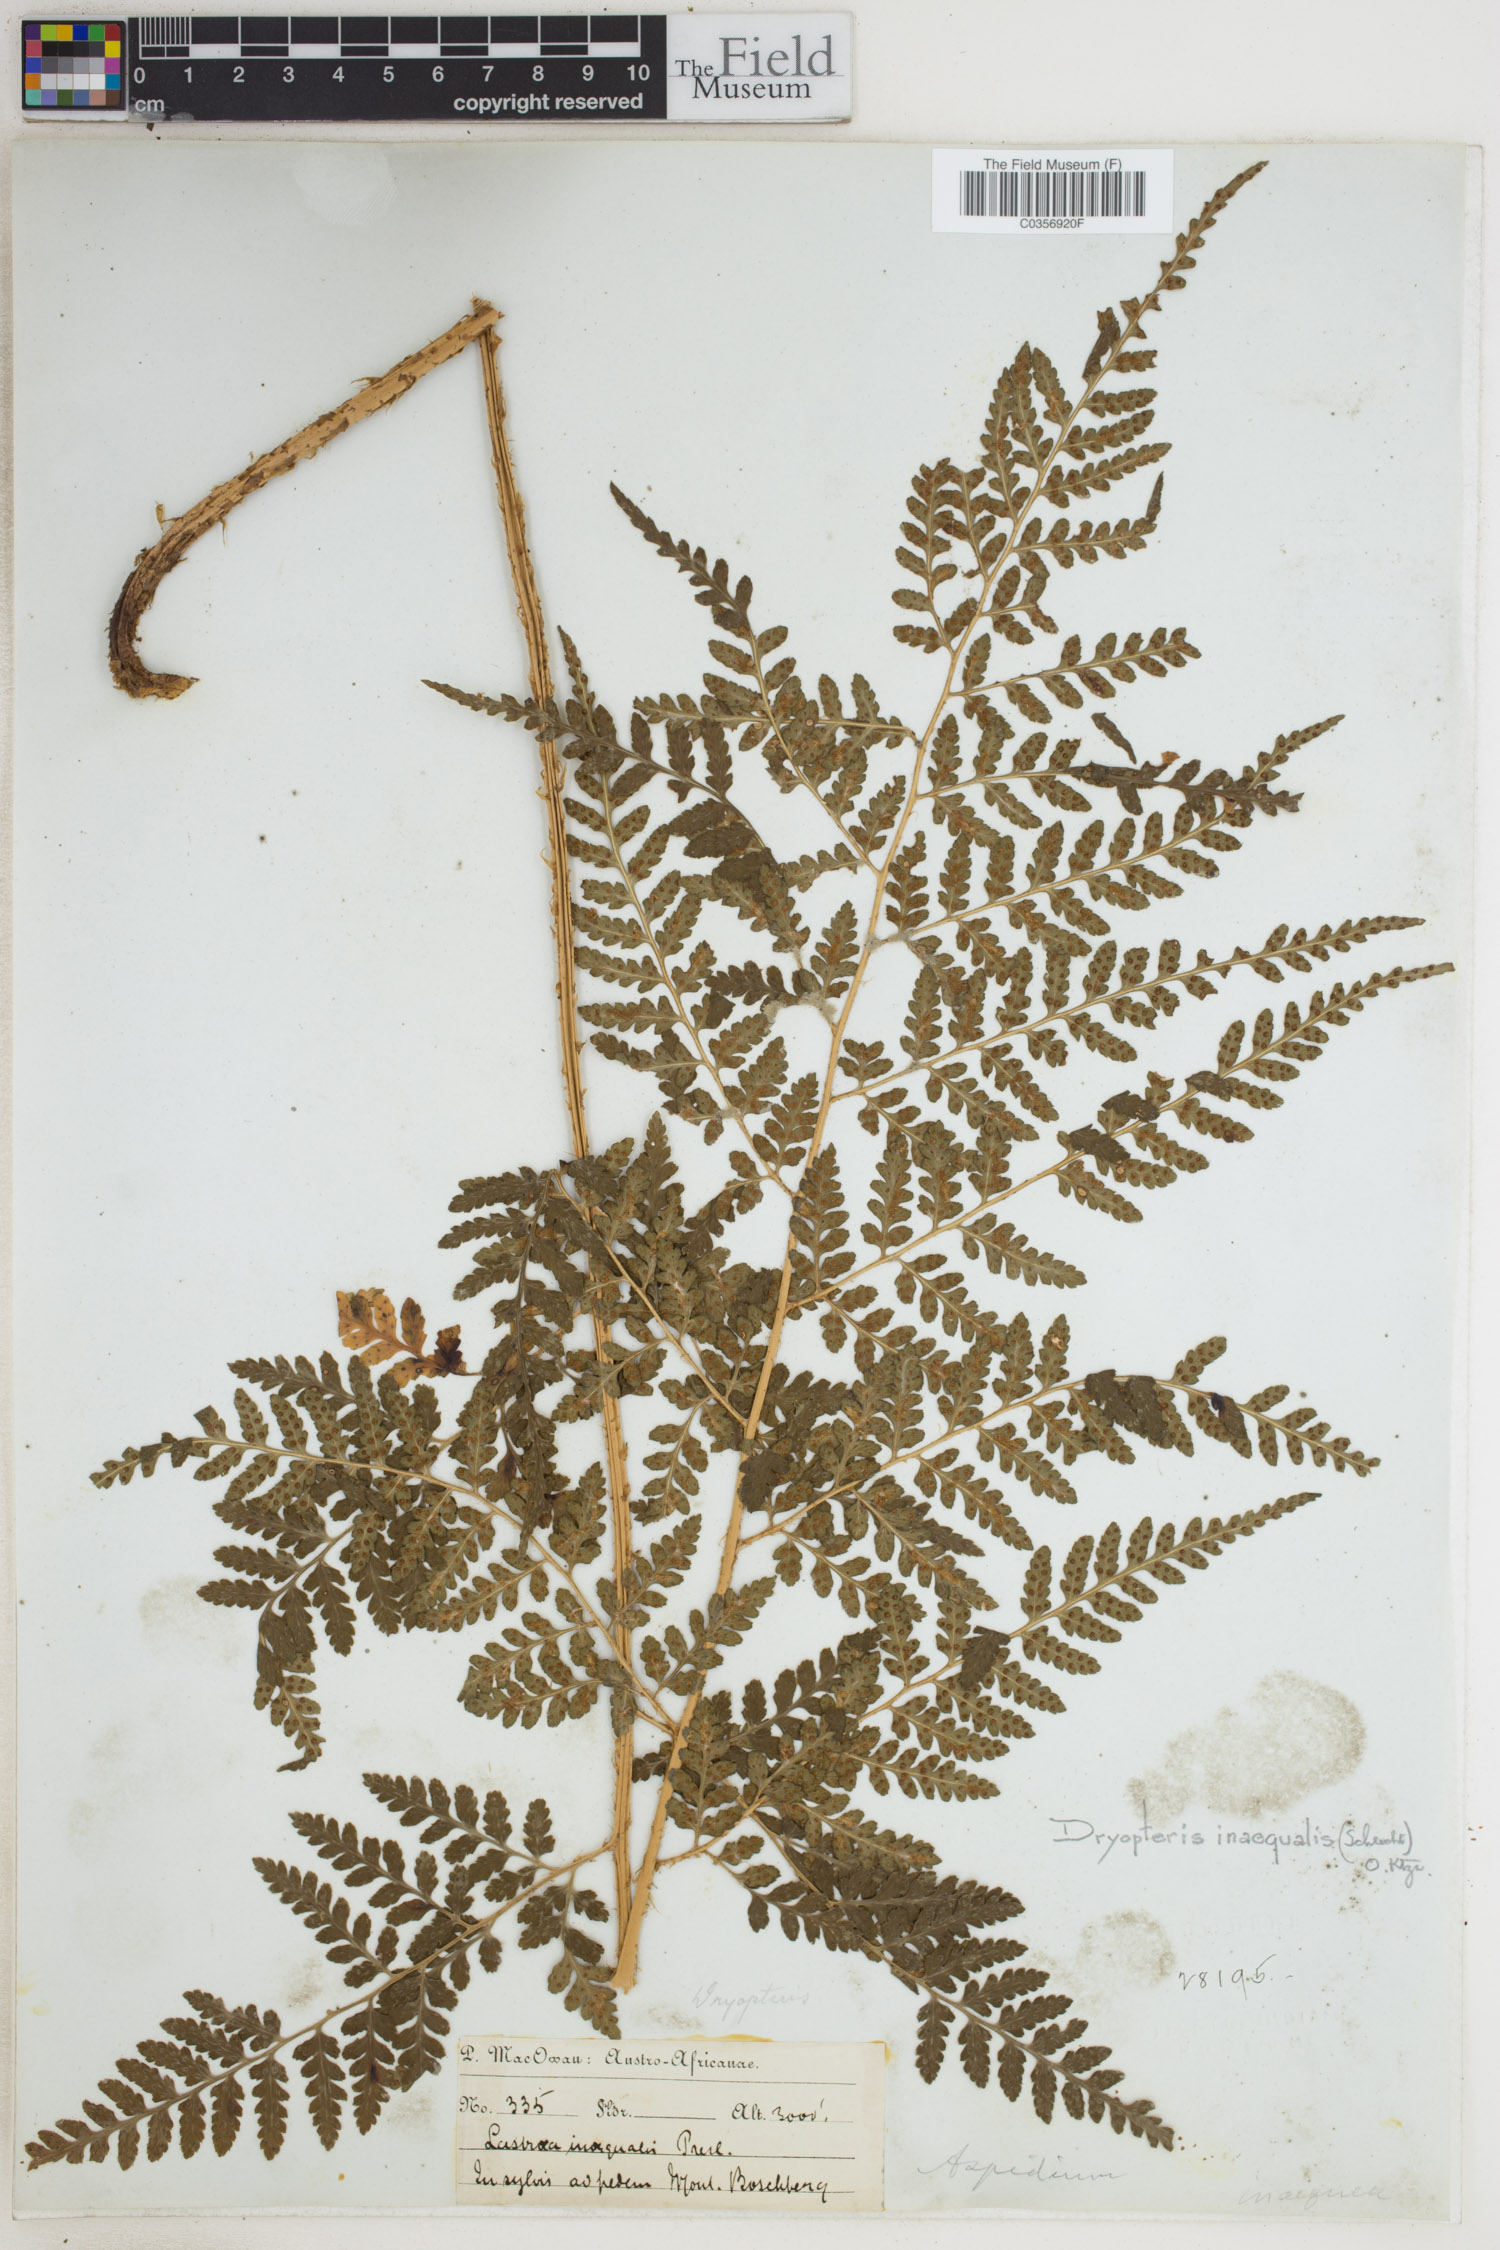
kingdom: Plantae
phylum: Tracheophyta
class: Polypodiopsida
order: Polypodiales
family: Dryopteridaceae
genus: Dryopteris
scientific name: Dryopteris inaequalis
